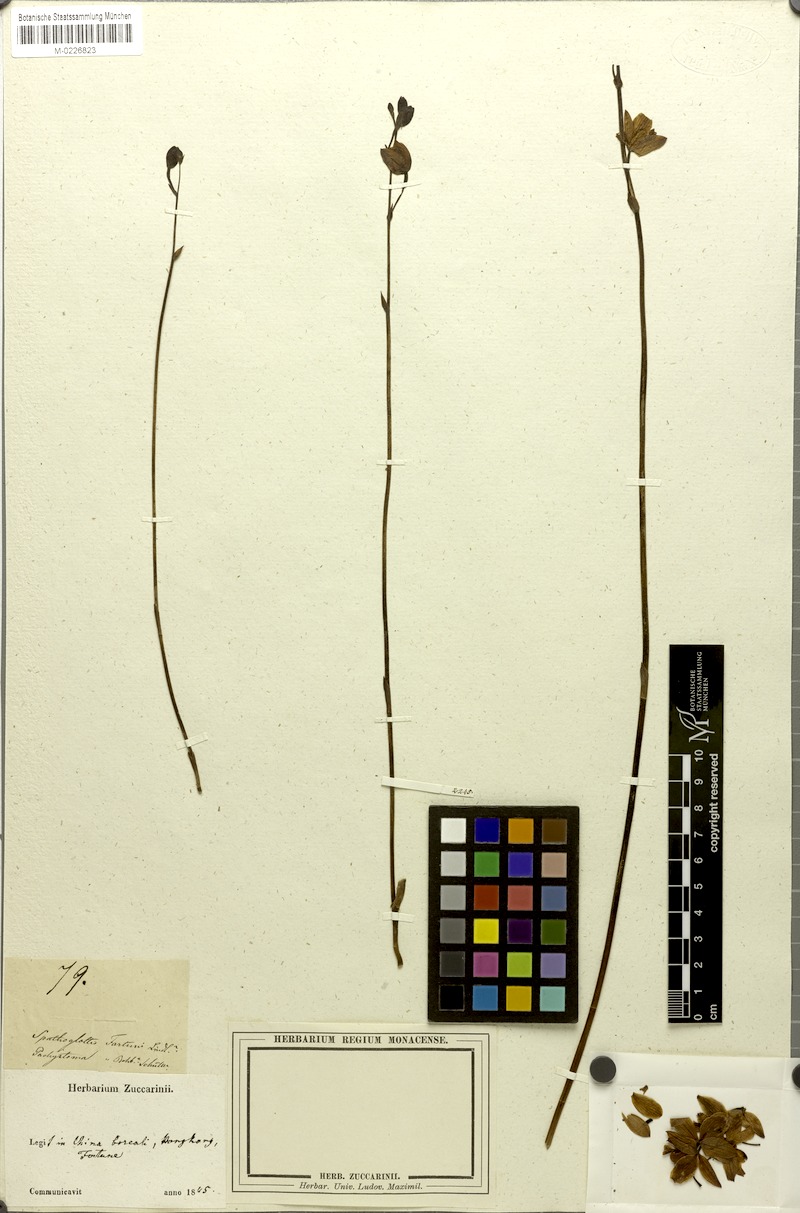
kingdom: Plantae
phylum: Tracheophyta
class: Liliopsida
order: Asparagales
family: Orchidaceae
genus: Spathoglottis
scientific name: Spathoglottis pubescens
